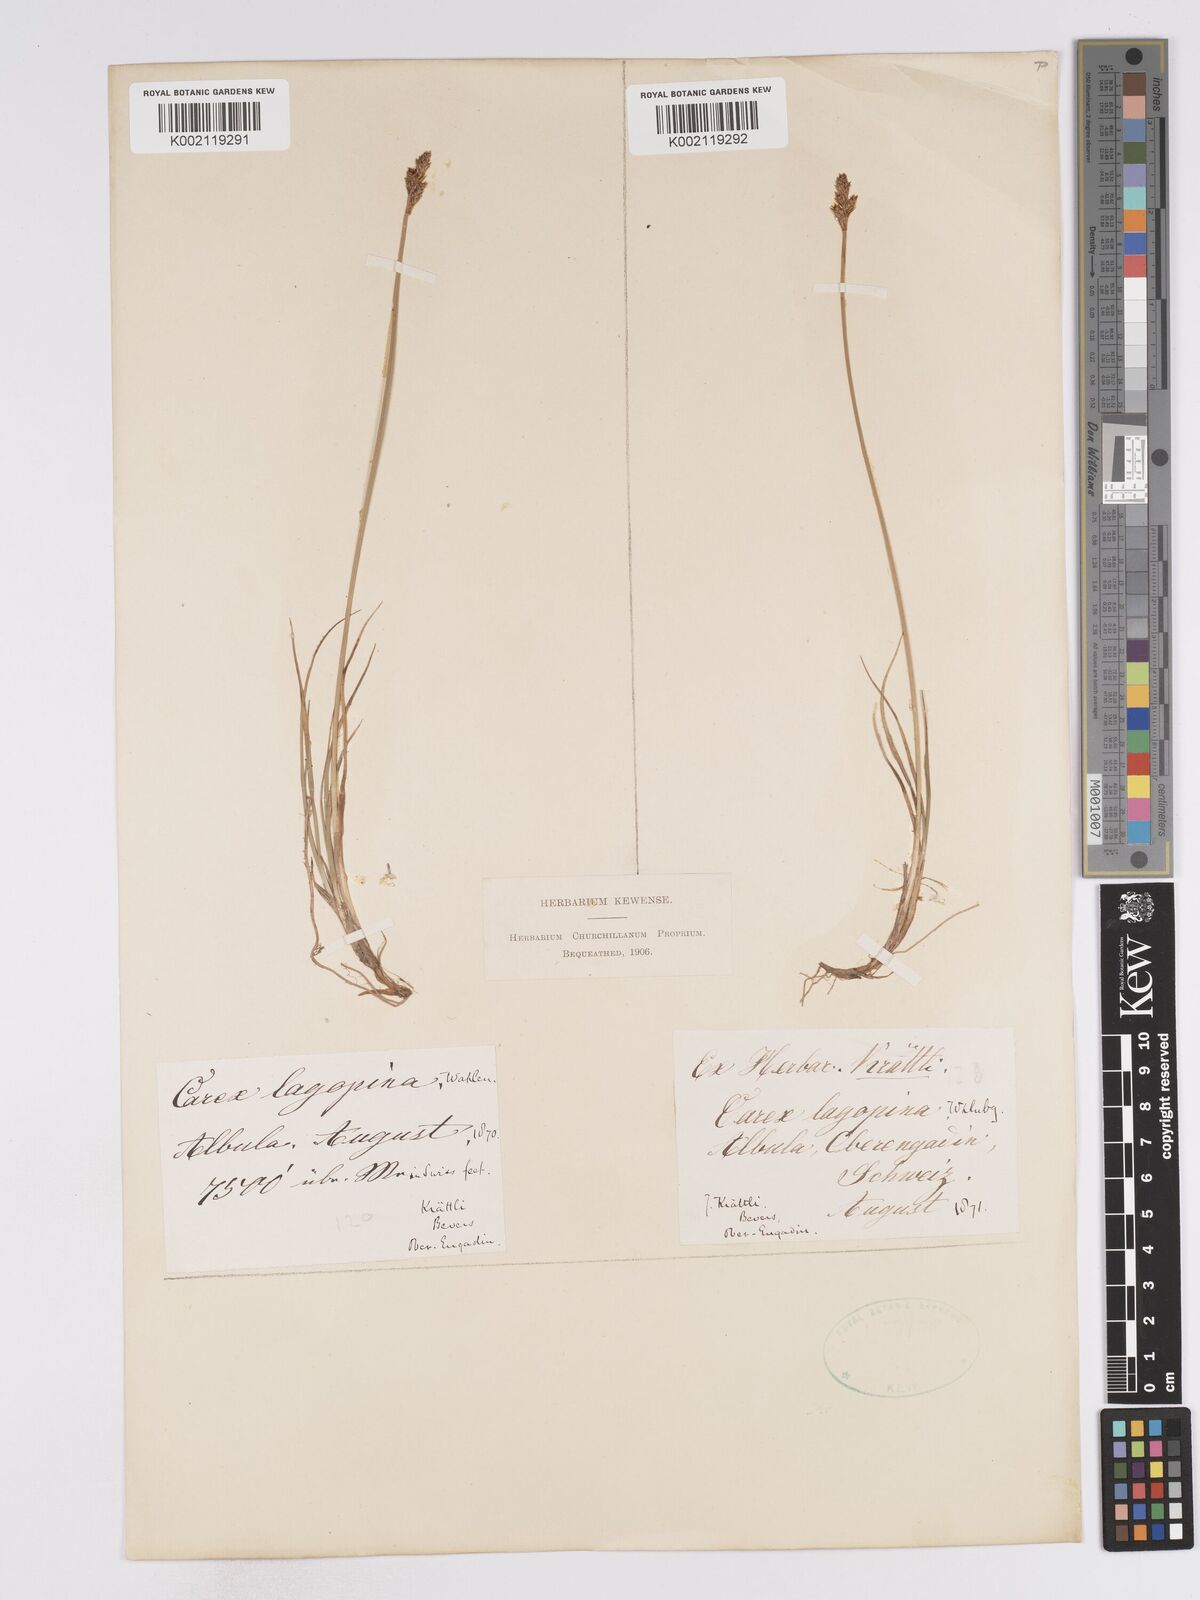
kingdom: Plantae
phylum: Tracheophyta
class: Liliopsida
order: Poales
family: Cyperaceae
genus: Carex
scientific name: Carex lachenalii
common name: Hare's-foot sedge
